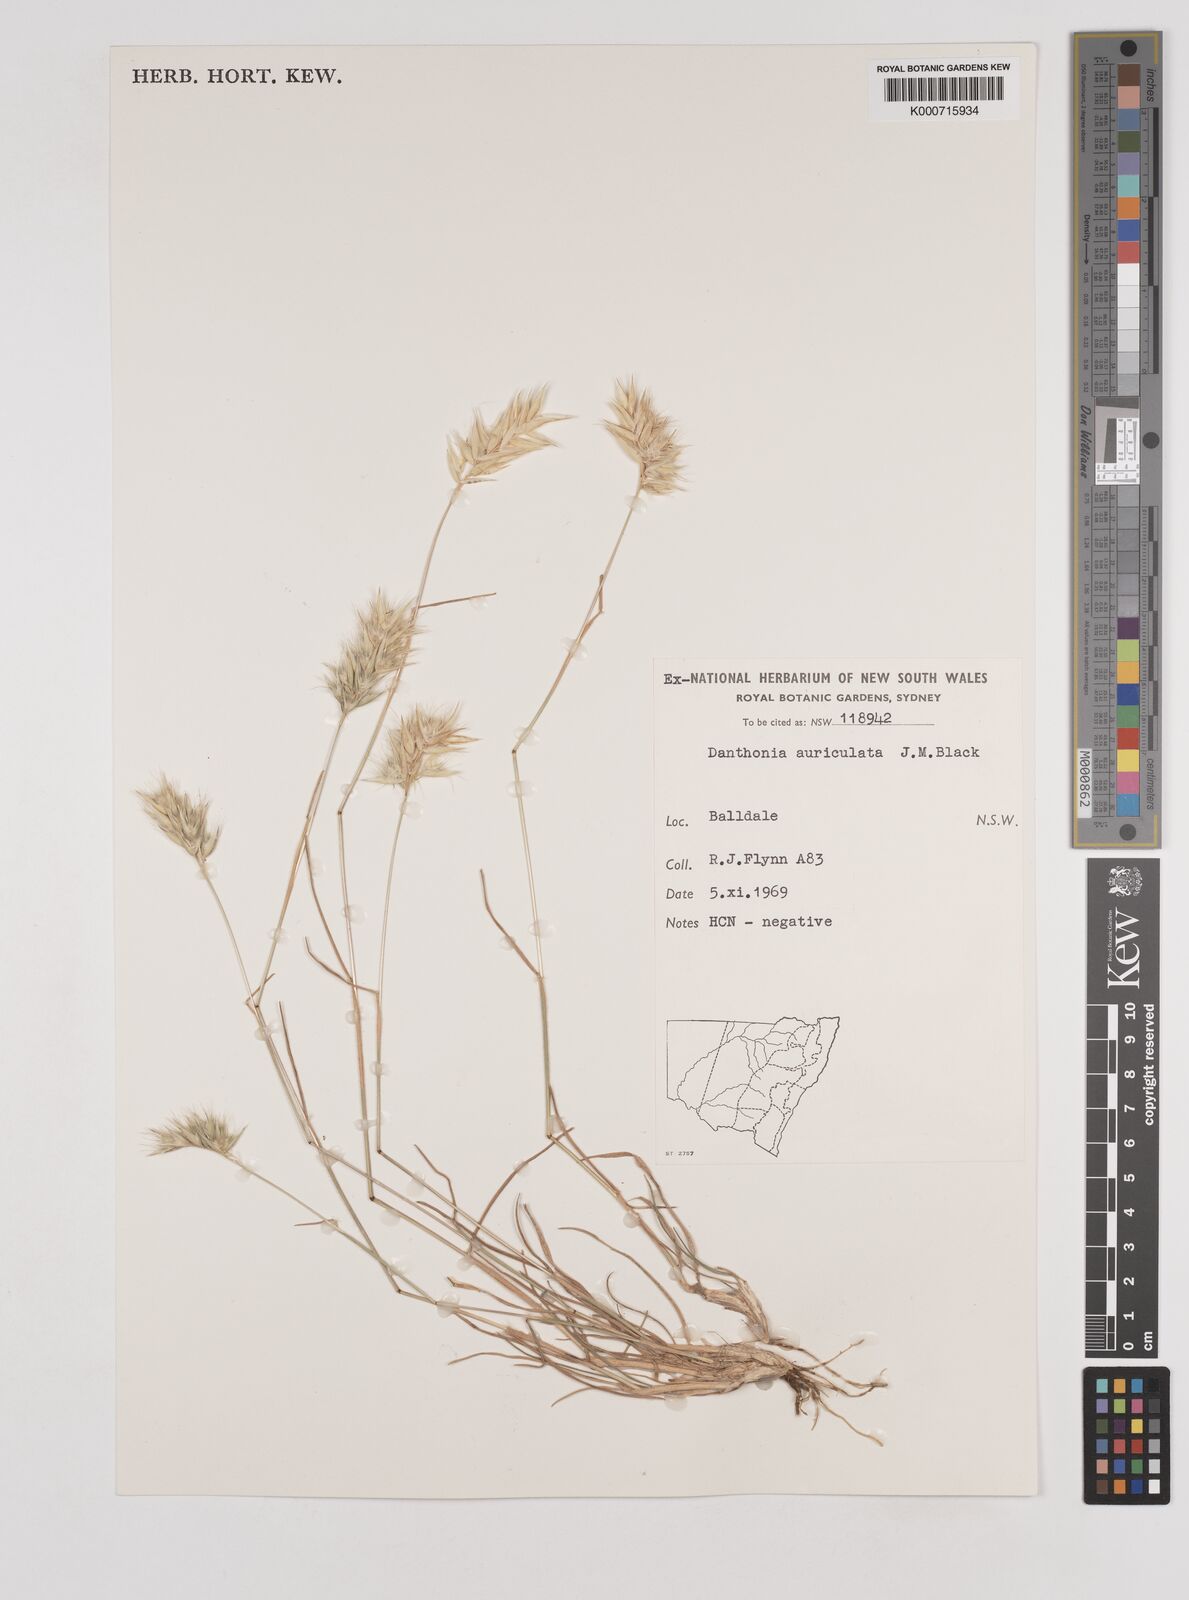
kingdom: Plantae
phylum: Tracheophyta
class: Liliopsida
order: Poales
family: Poaceae
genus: Rytidosperma
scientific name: Rytidosperma auriculatum
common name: Lobed wallaby grass
